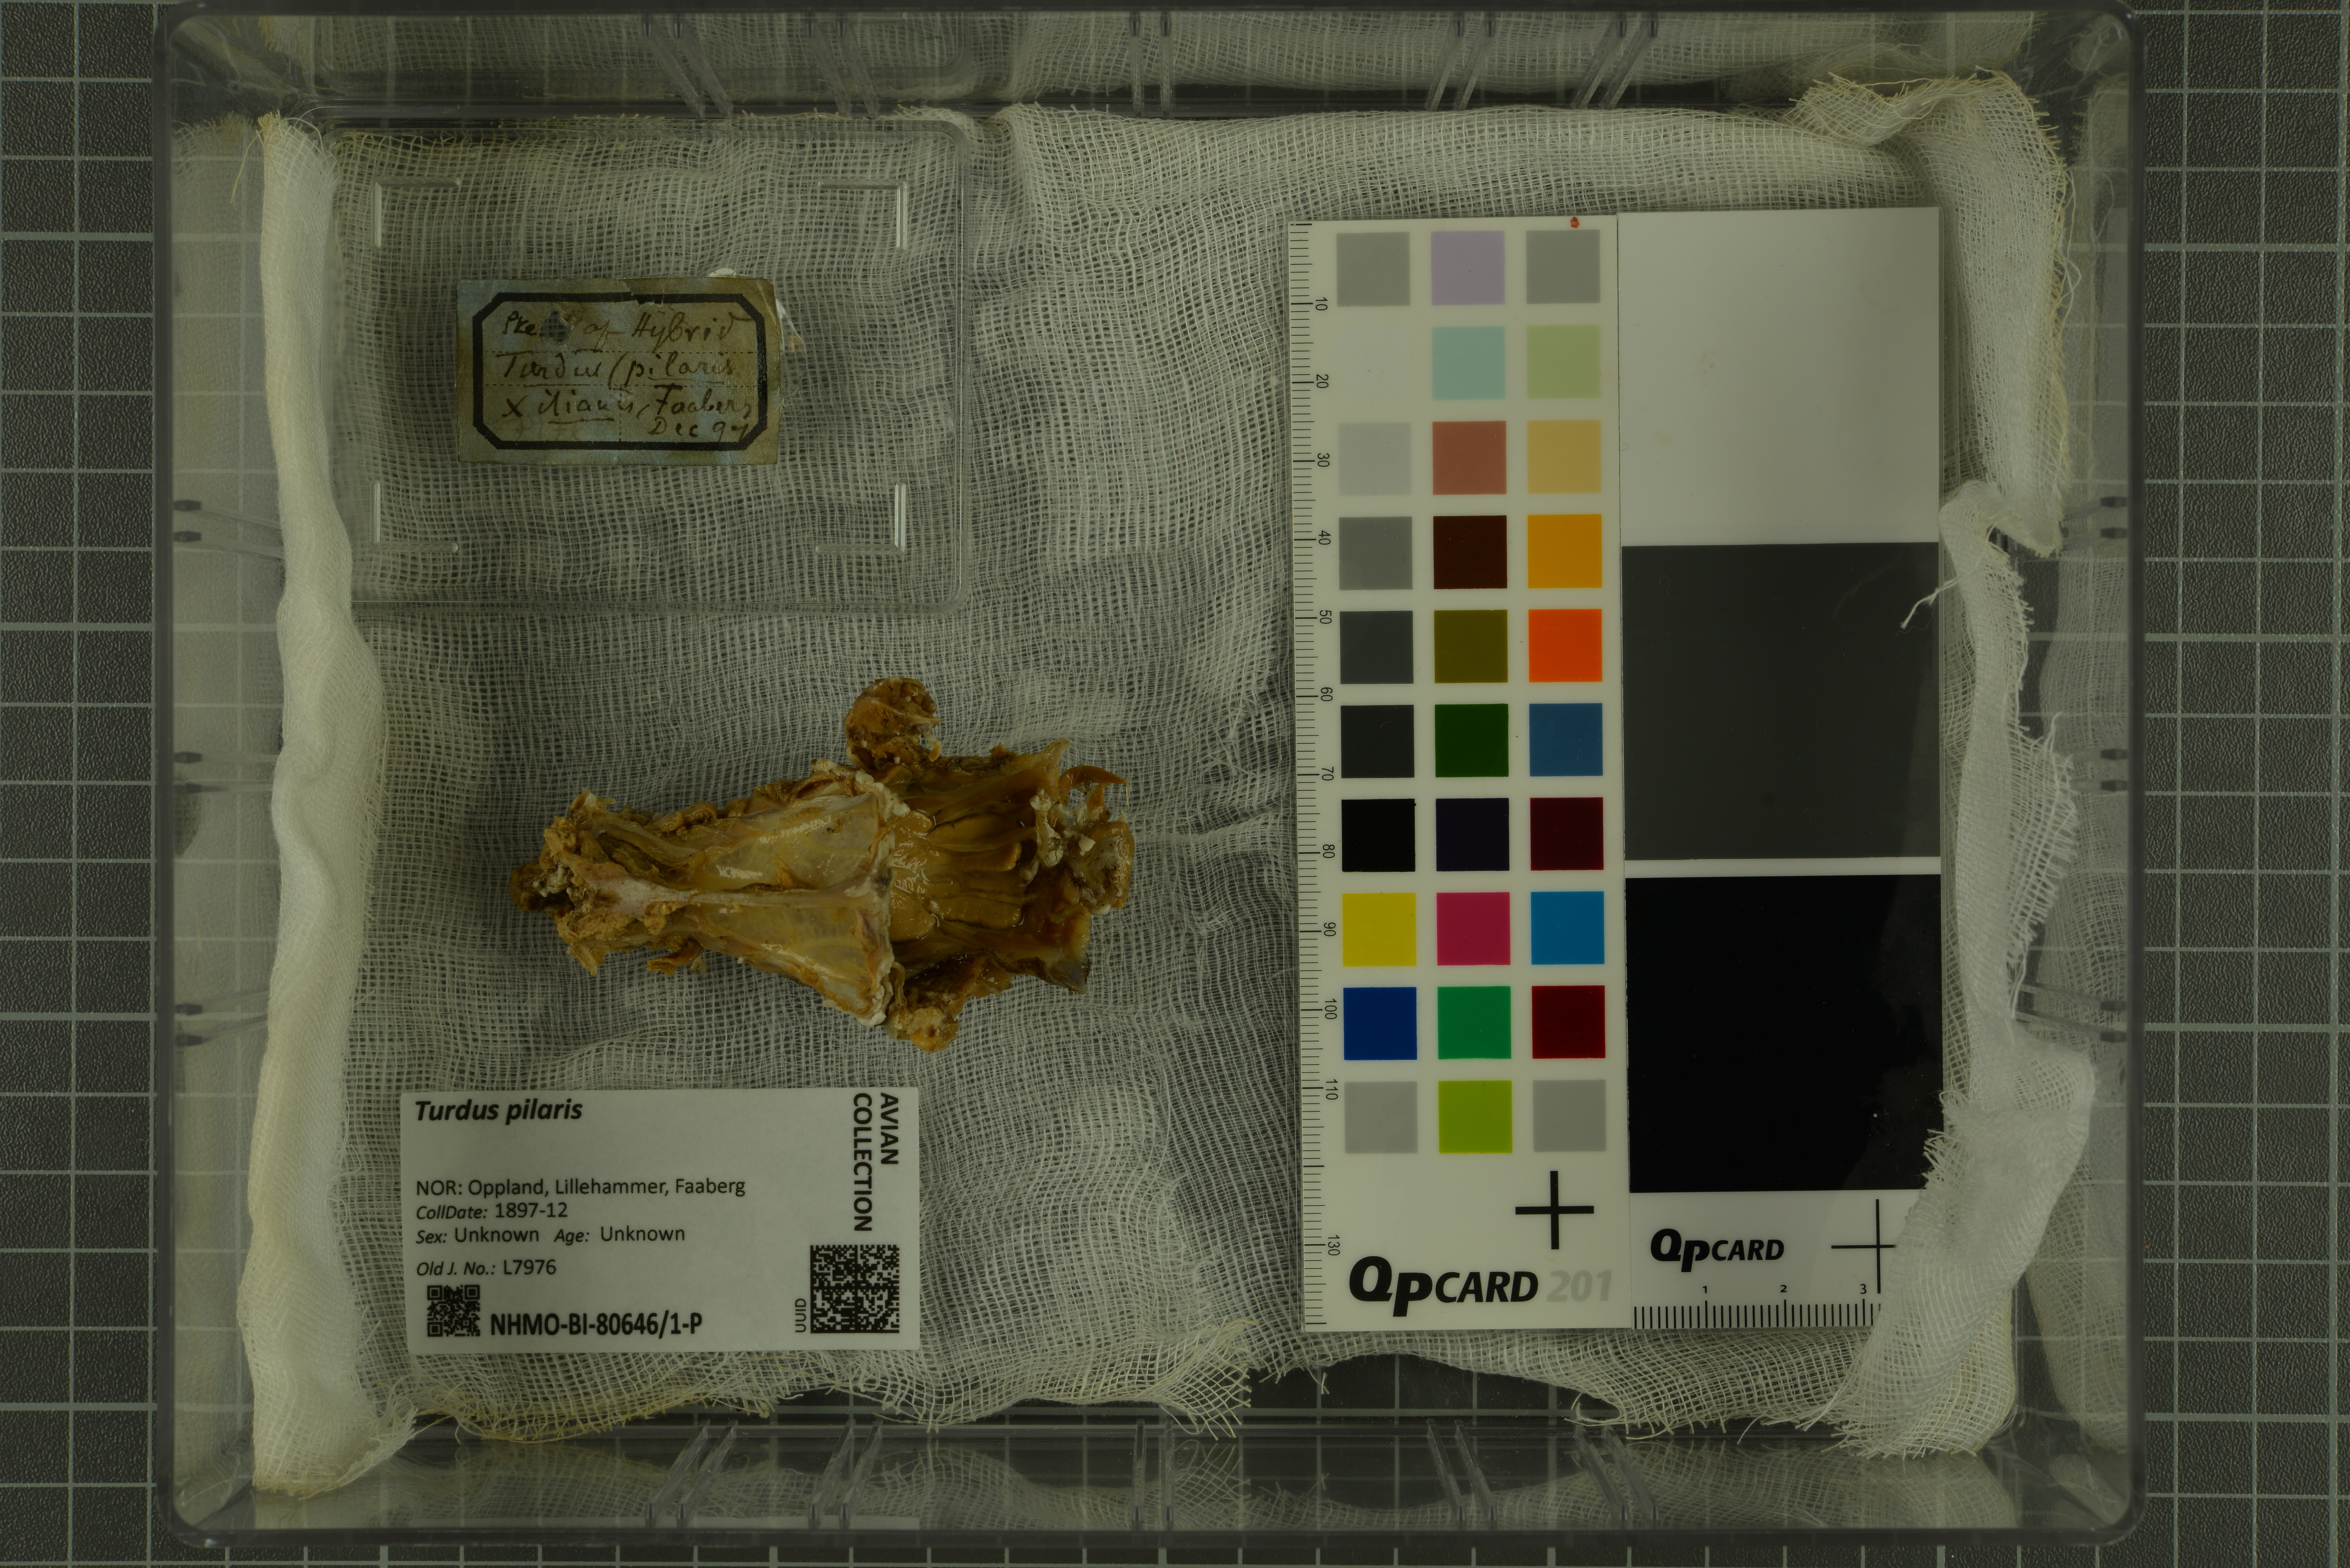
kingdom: Animalia
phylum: Chordata
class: Aves
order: Passeriformes
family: Turdidae
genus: Turdus
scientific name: Turdus
